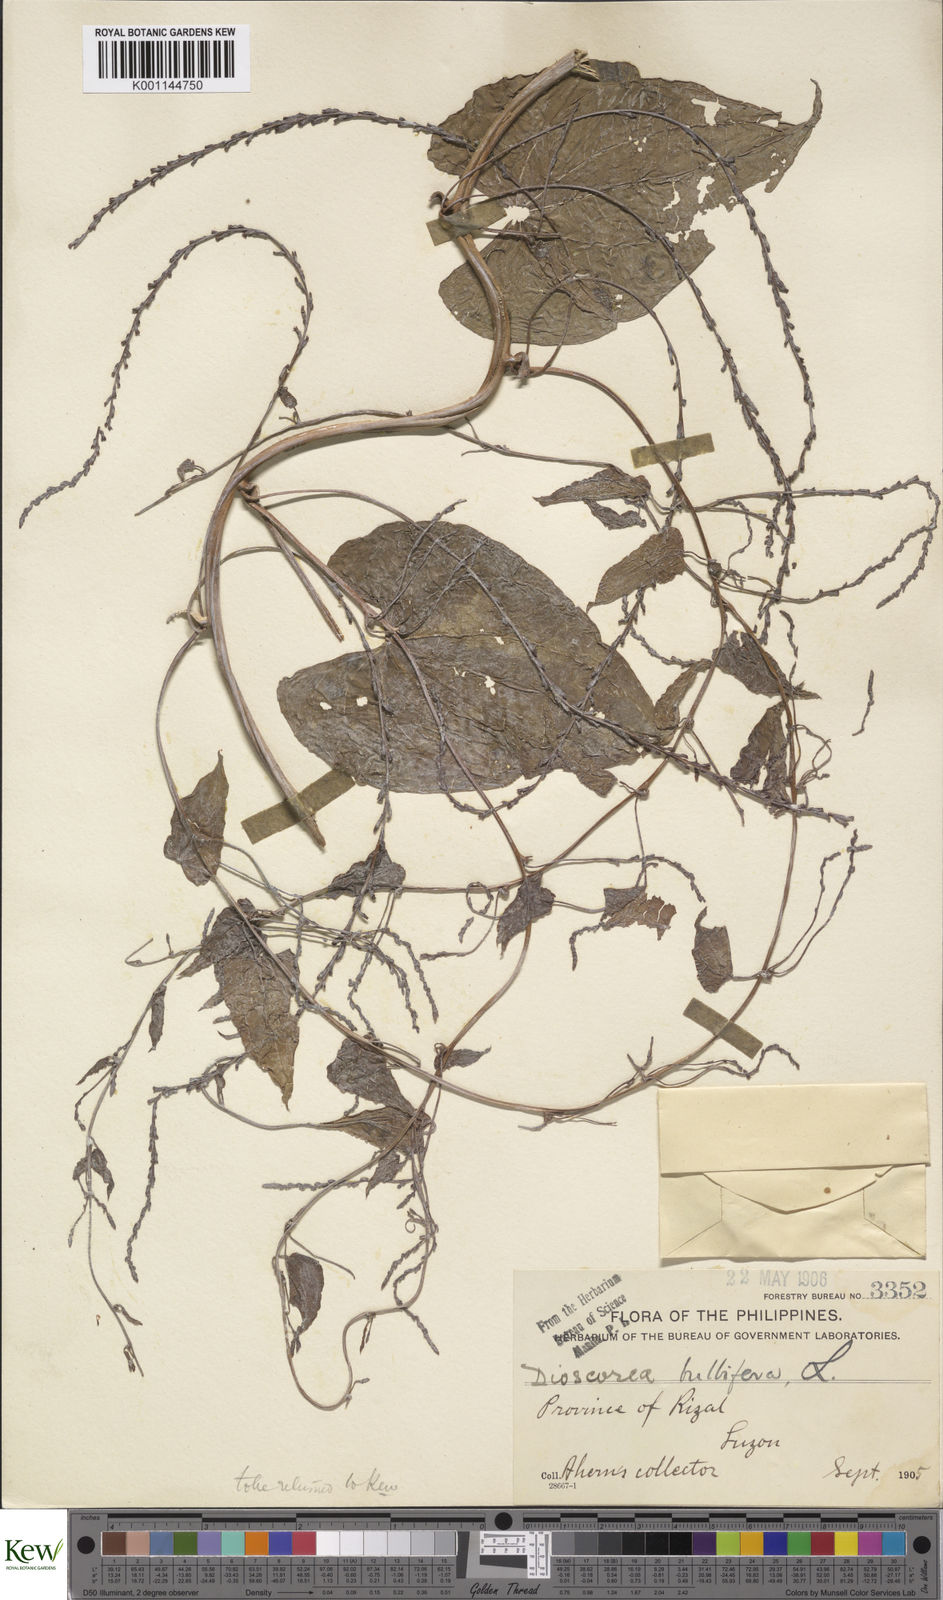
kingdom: Plantae
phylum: Tracheophyta
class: Liliopsida
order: Dioscoreales
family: Dioscoreaceae
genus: Dioscorea
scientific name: Dioscorea bulbifera
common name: Air yam
